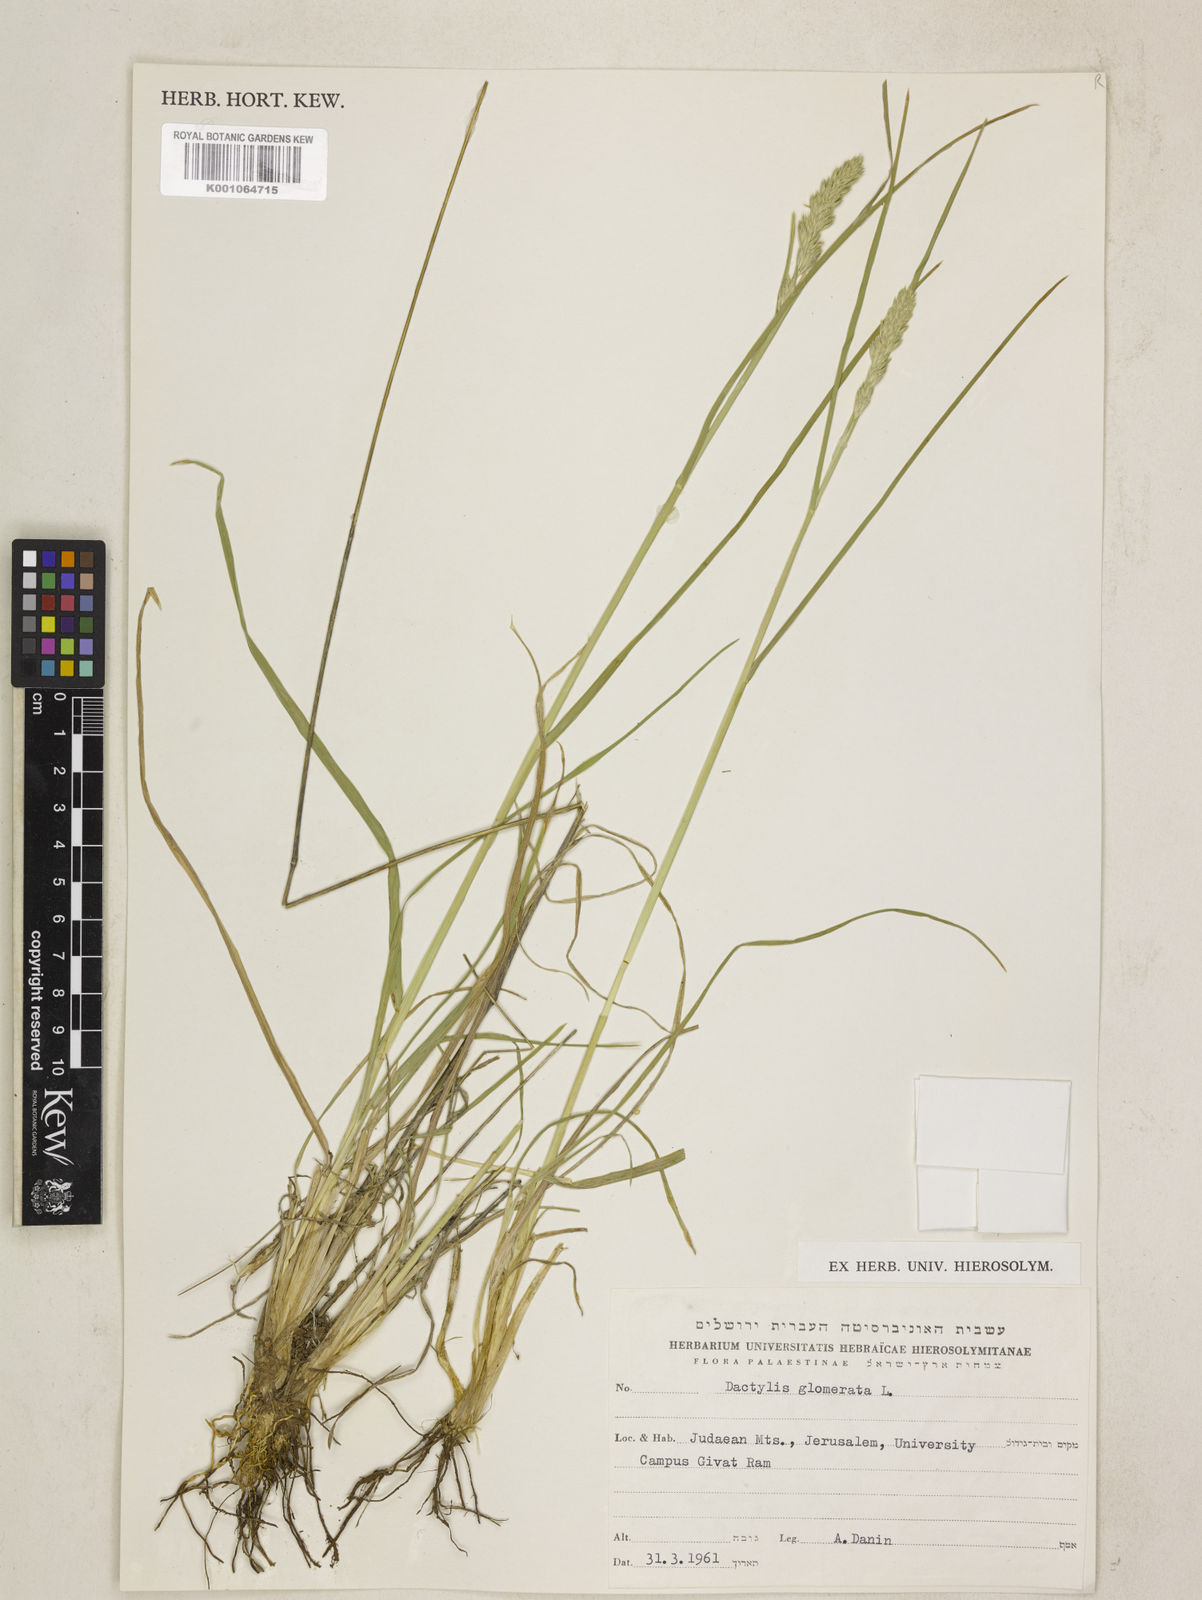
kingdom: Plantae
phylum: Tracheophyta
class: Liliopsida
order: Poales
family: Poaceae
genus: Dactylis
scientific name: Dactylis glomerata
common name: Orchardgrass
